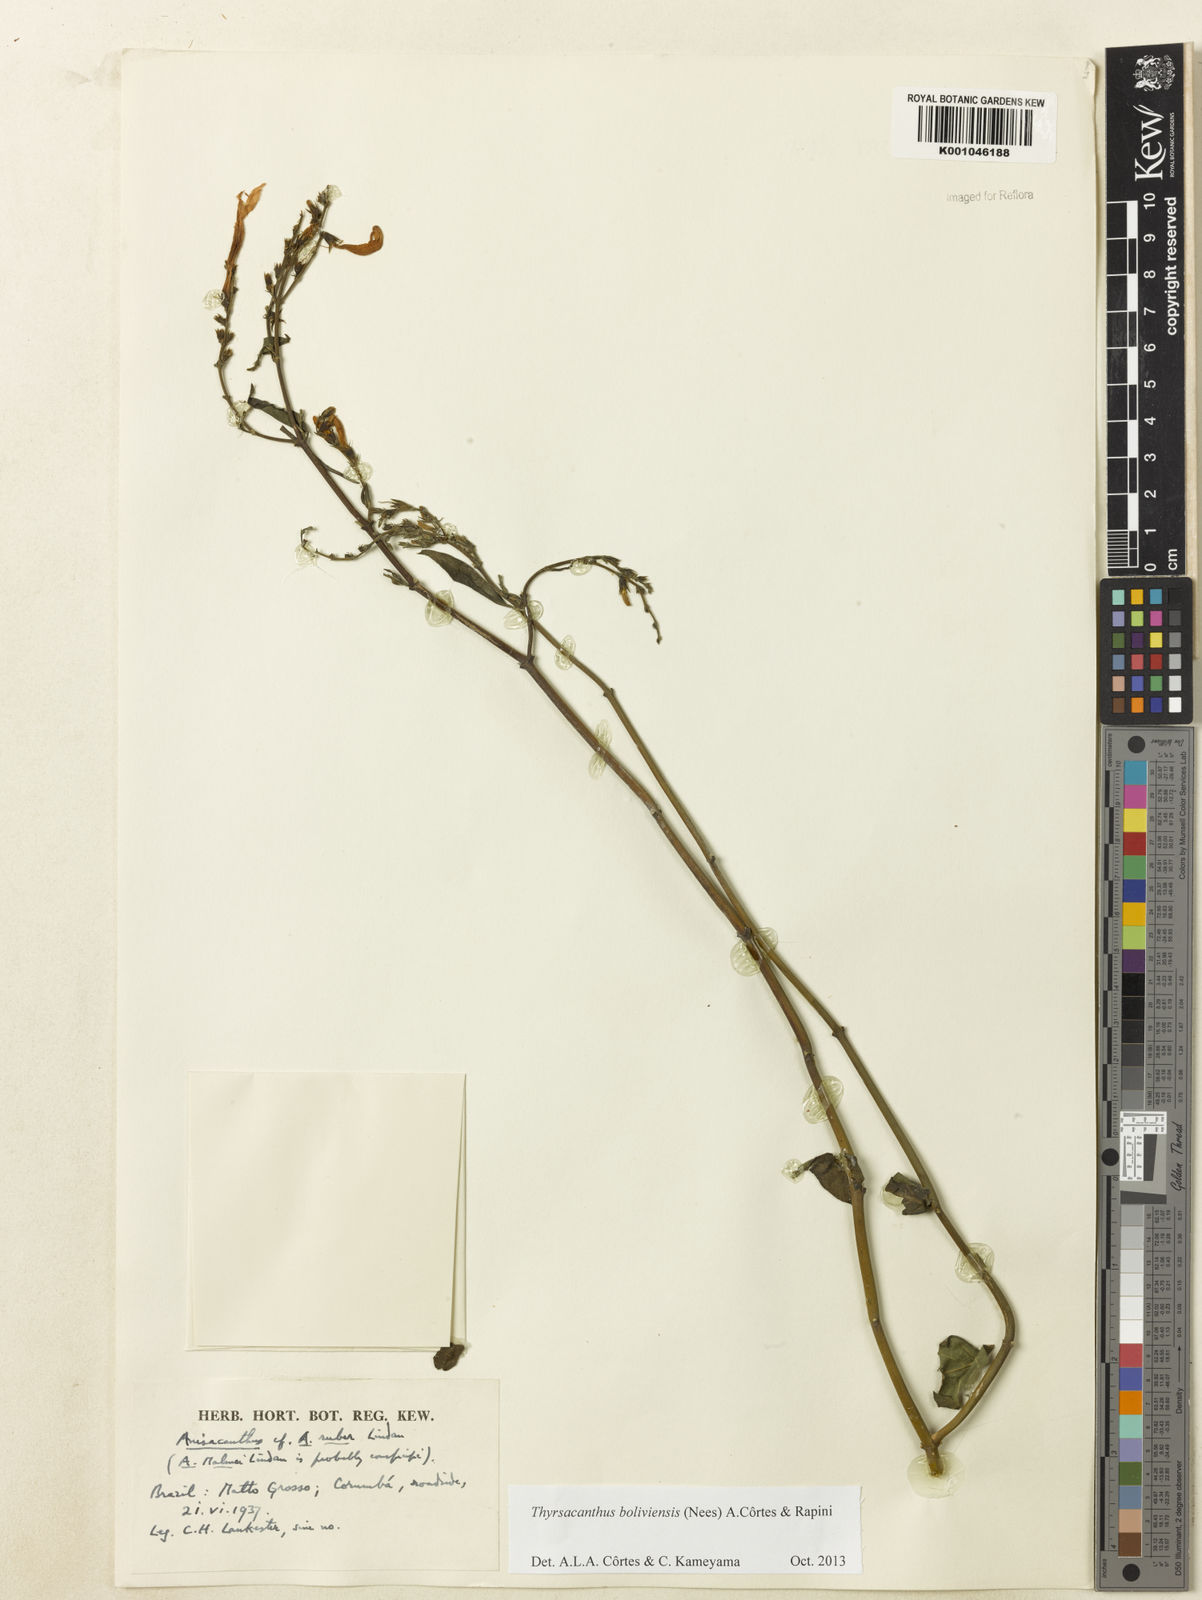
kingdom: Plantae
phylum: Tracheophyta
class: Magnoliopsida
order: Lamiales
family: Acanthaceae
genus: Thyrsacanthus
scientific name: Thyrsacanthus boliviensis
